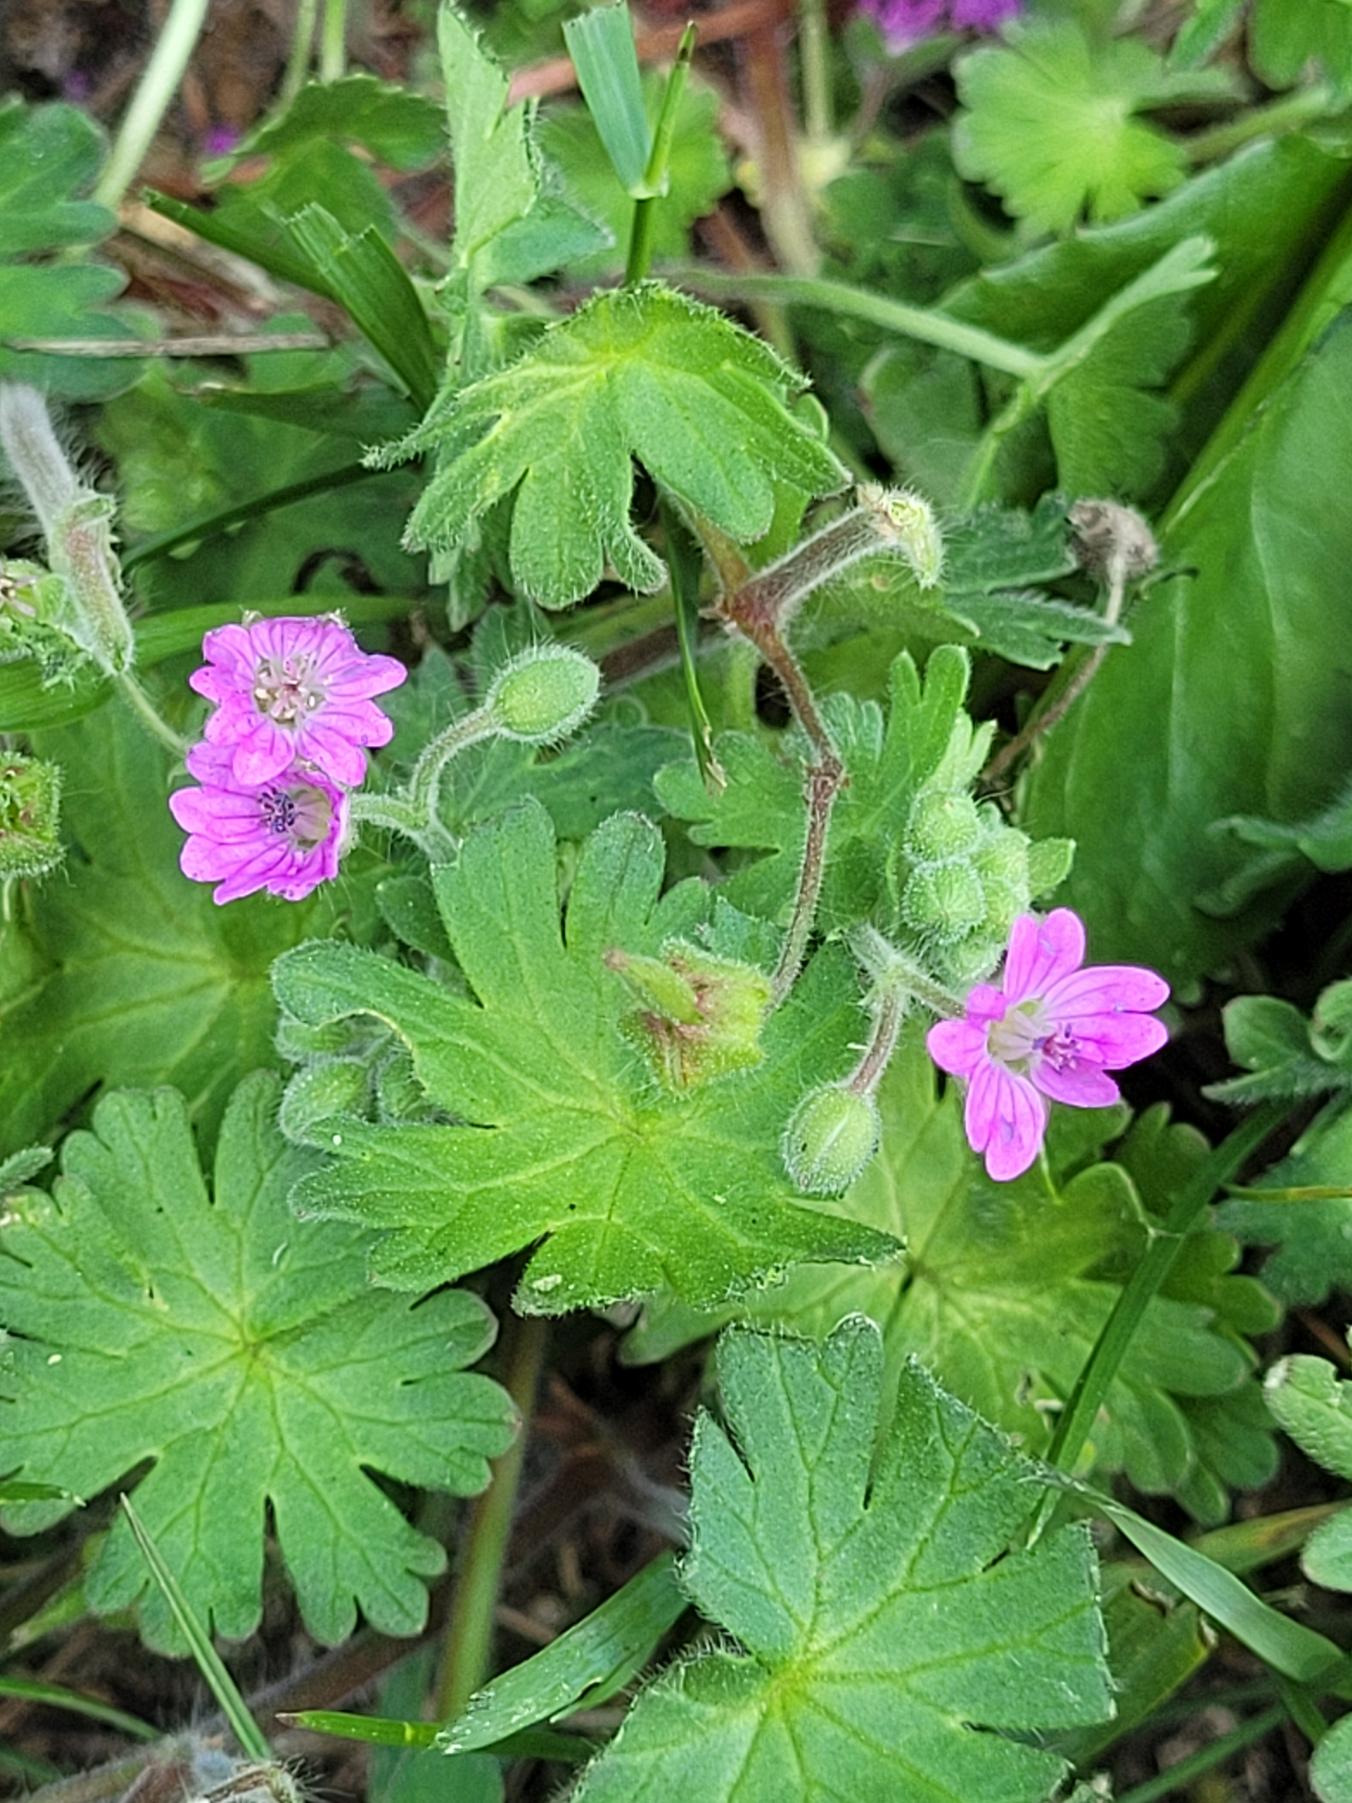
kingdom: Plantae
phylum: Tracheophyta
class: Magnoliopsida
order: Geraniales
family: Geraniaceae
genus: Geranium
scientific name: Geranium pyrenaicum
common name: Pyrenæisk storkenæb
